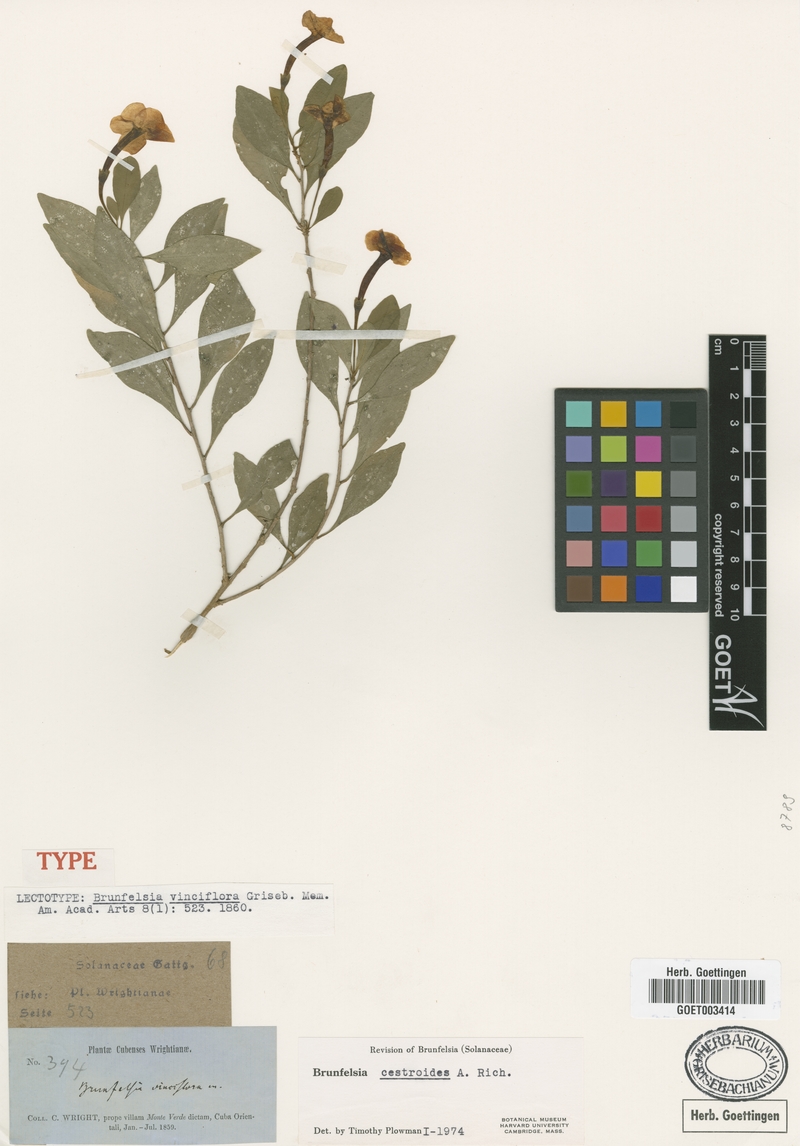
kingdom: Plantae
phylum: Tracheophyta
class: Magnoliopsida
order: Solanales
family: Solanaceae
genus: Brunfelsia
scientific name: Brunfelsia cestroides
